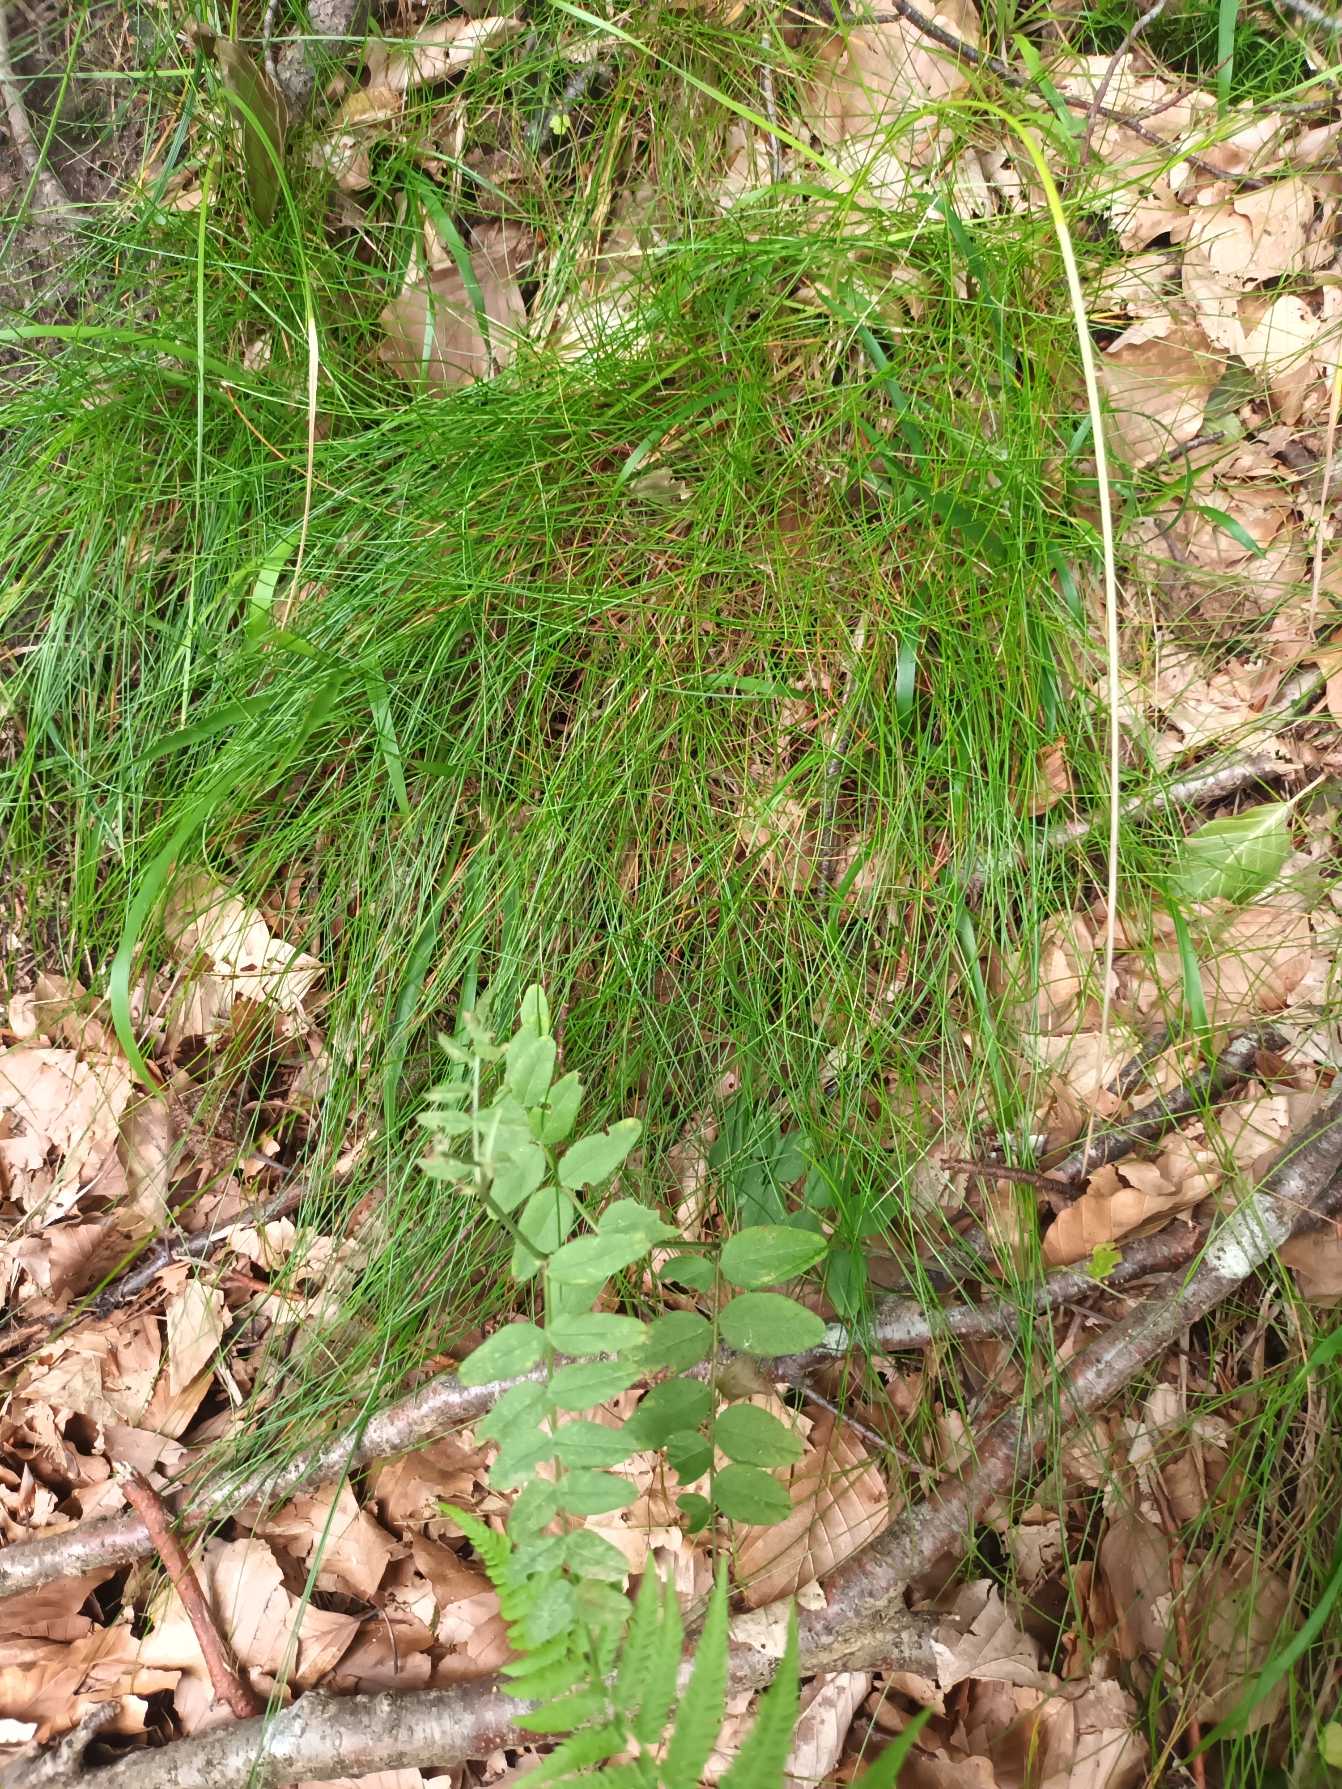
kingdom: Plantae
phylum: Tracheophyta
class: Liliopsida
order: Poales
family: Poaceae
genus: Avenella
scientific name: Avenella flexuosa
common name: Bølget bunke
